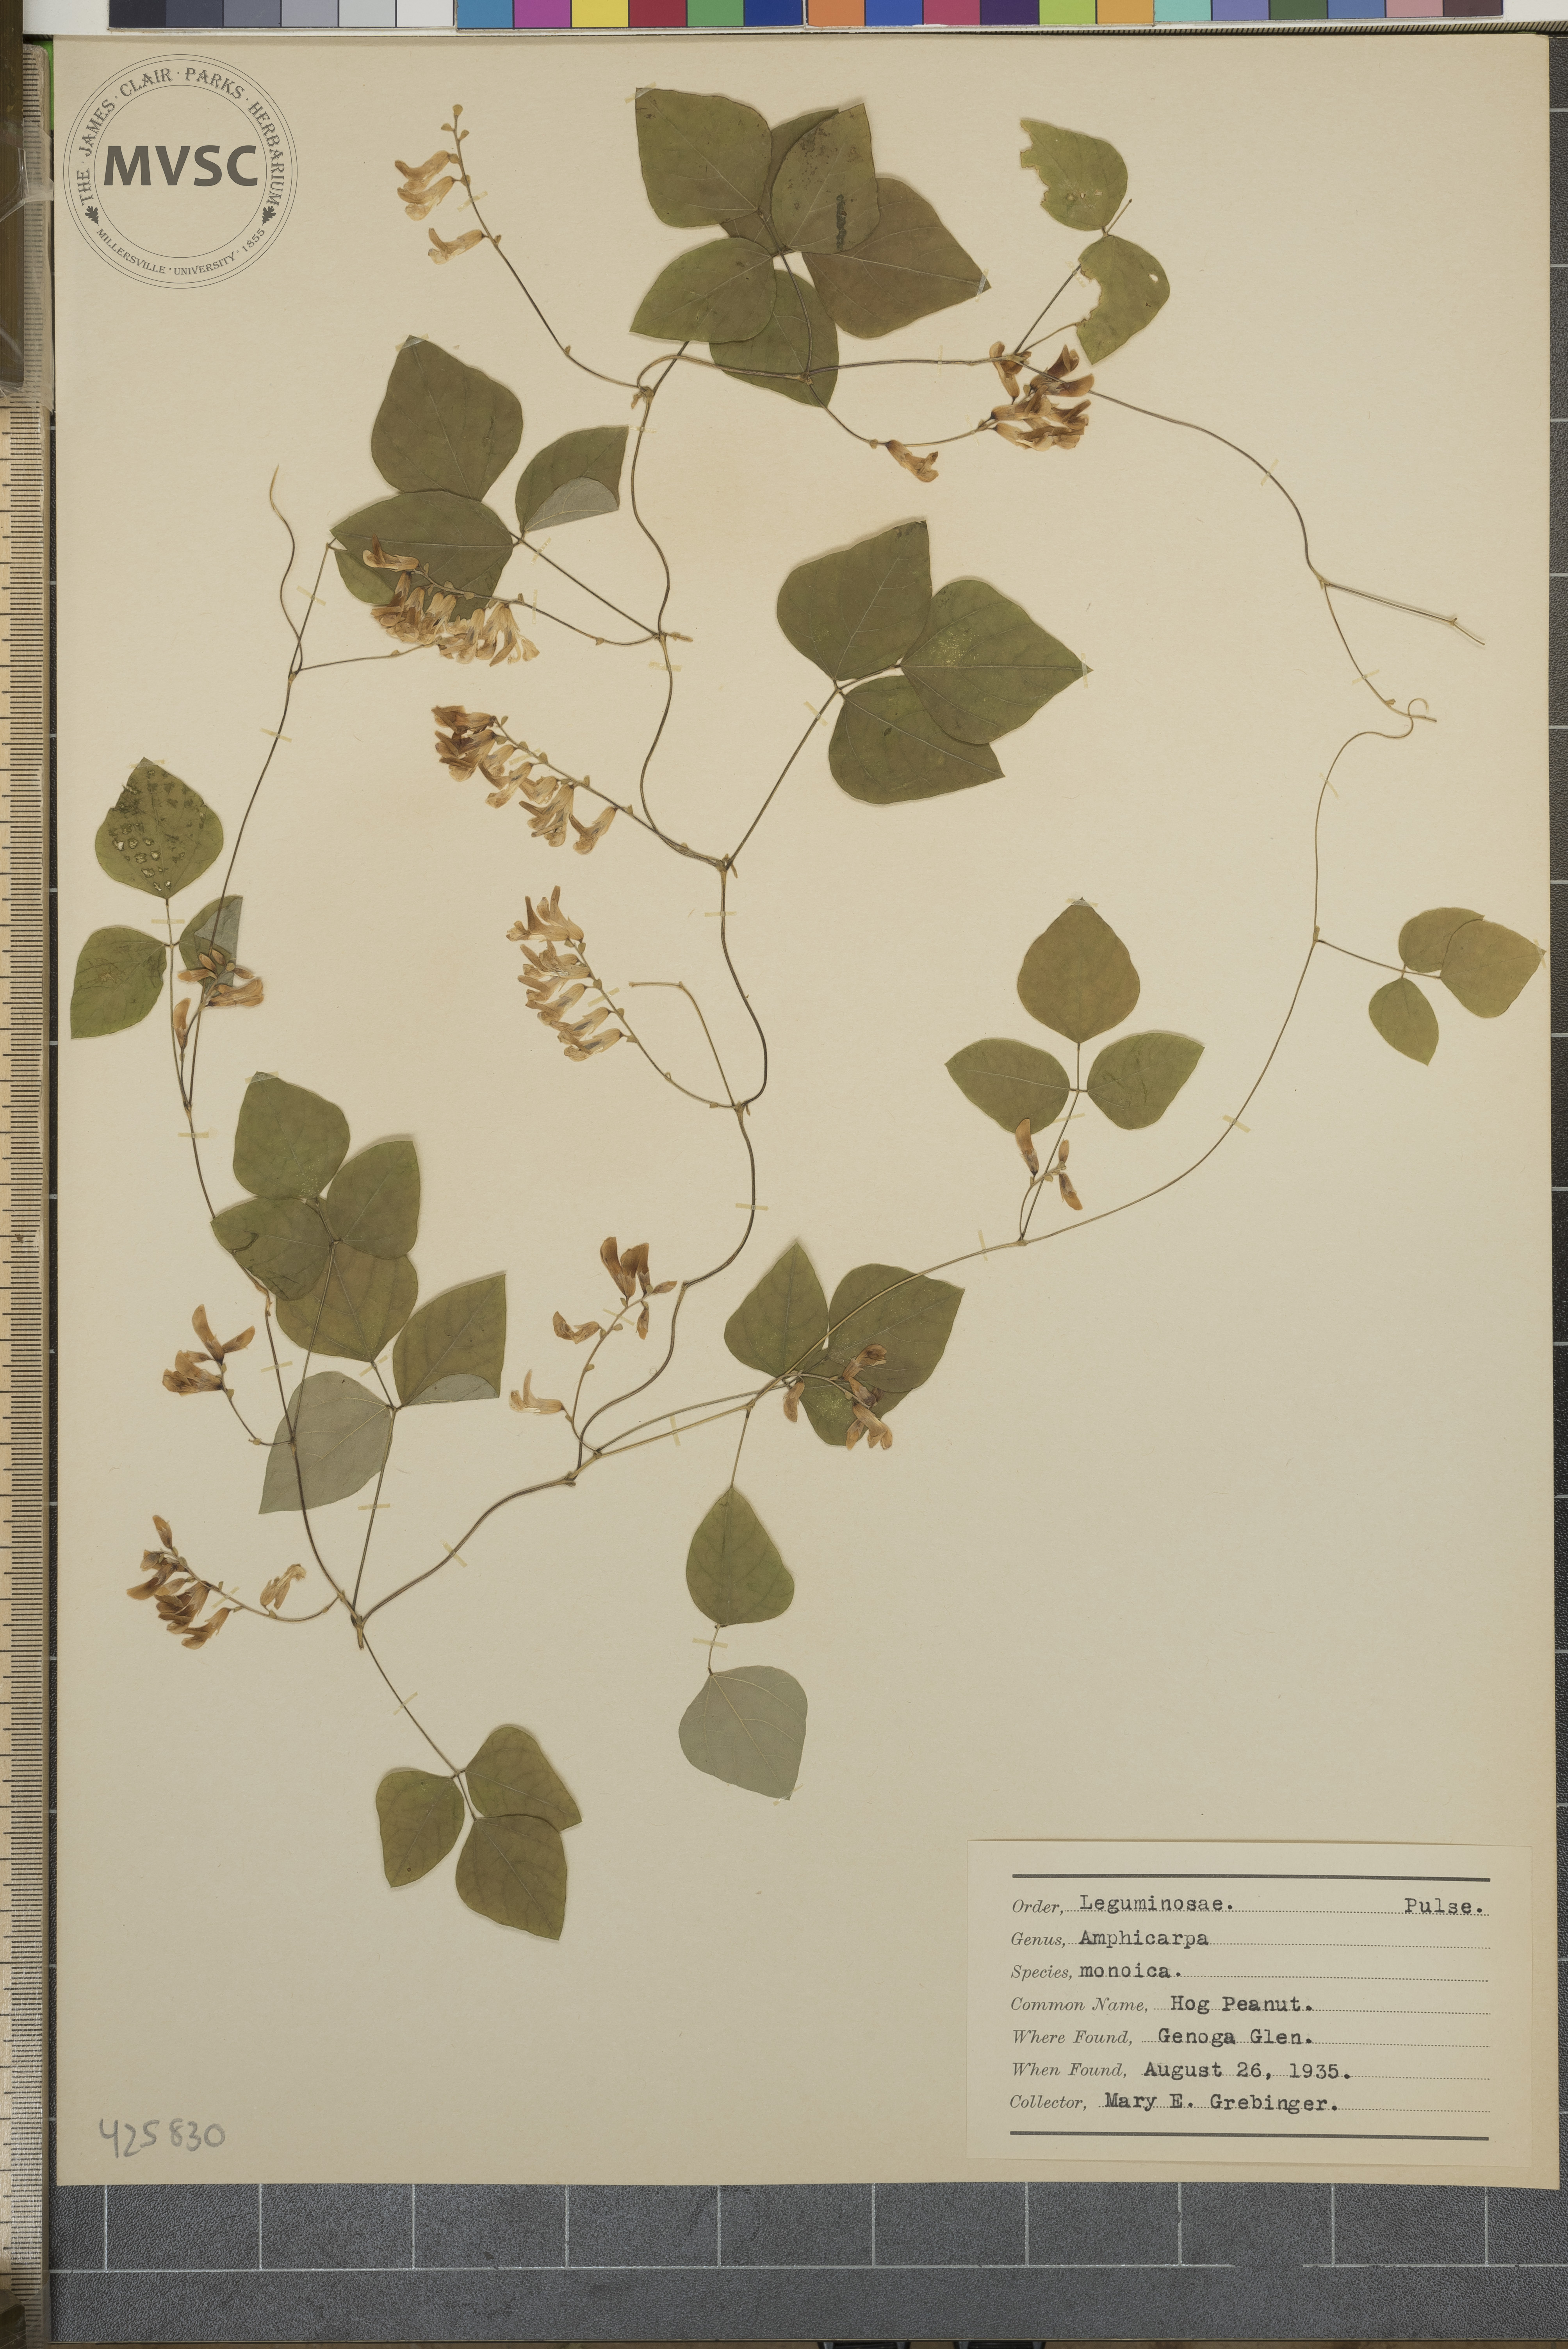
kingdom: Plantae
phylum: Tracheophyta
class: Magnoliopsida
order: Fabales
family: Fabaceae
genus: Amphicarpaea
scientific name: Amphicarpaea bracteata
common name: Hog Peanut
